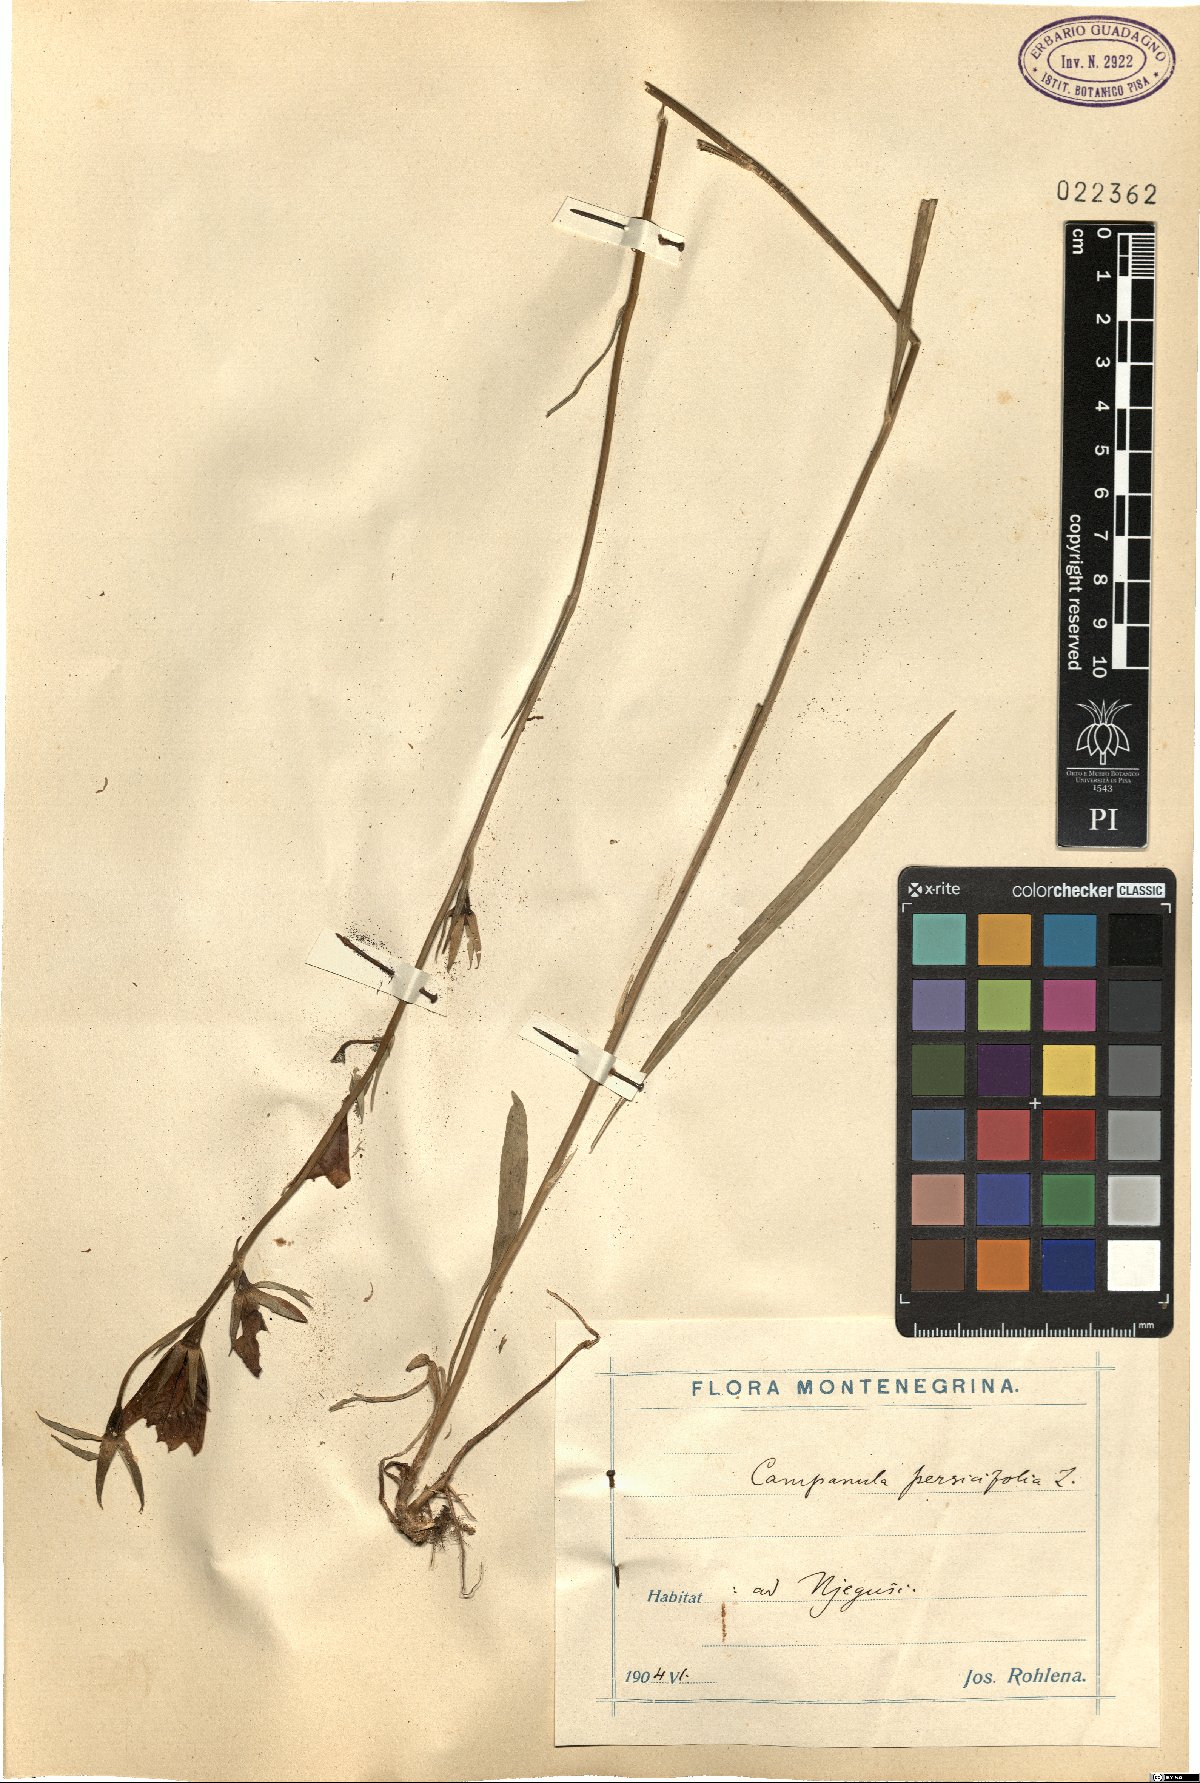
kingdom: Plantae
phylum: Tracheophyta
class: Magnoliopsida
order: Asterales
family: Campanulaceae
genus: Campanula
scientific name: Campanula persicifolia
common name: Peach-leaved bellflower
